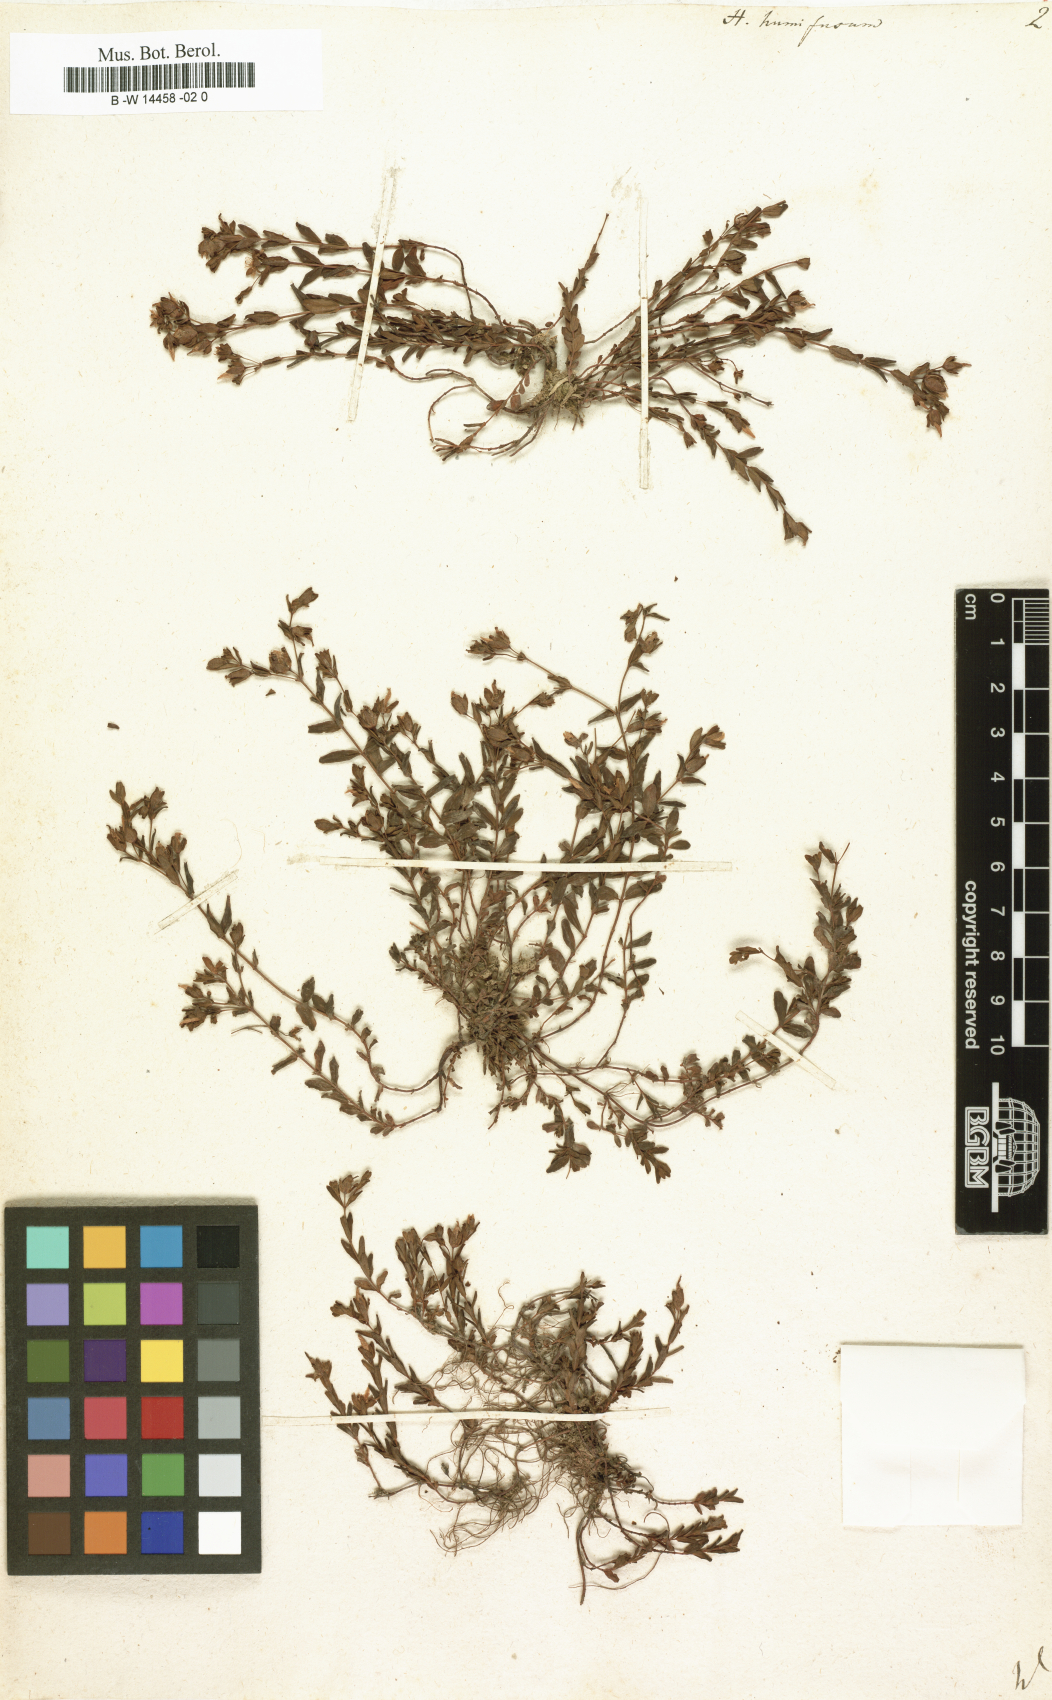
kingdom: Plantae
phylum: Tracheophyta
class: Magnoliopsida
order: Malpighiales
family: Hypericaceae
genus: Hypericum
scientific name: Hypericum humifusum
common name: Trailing st. john's-wort
